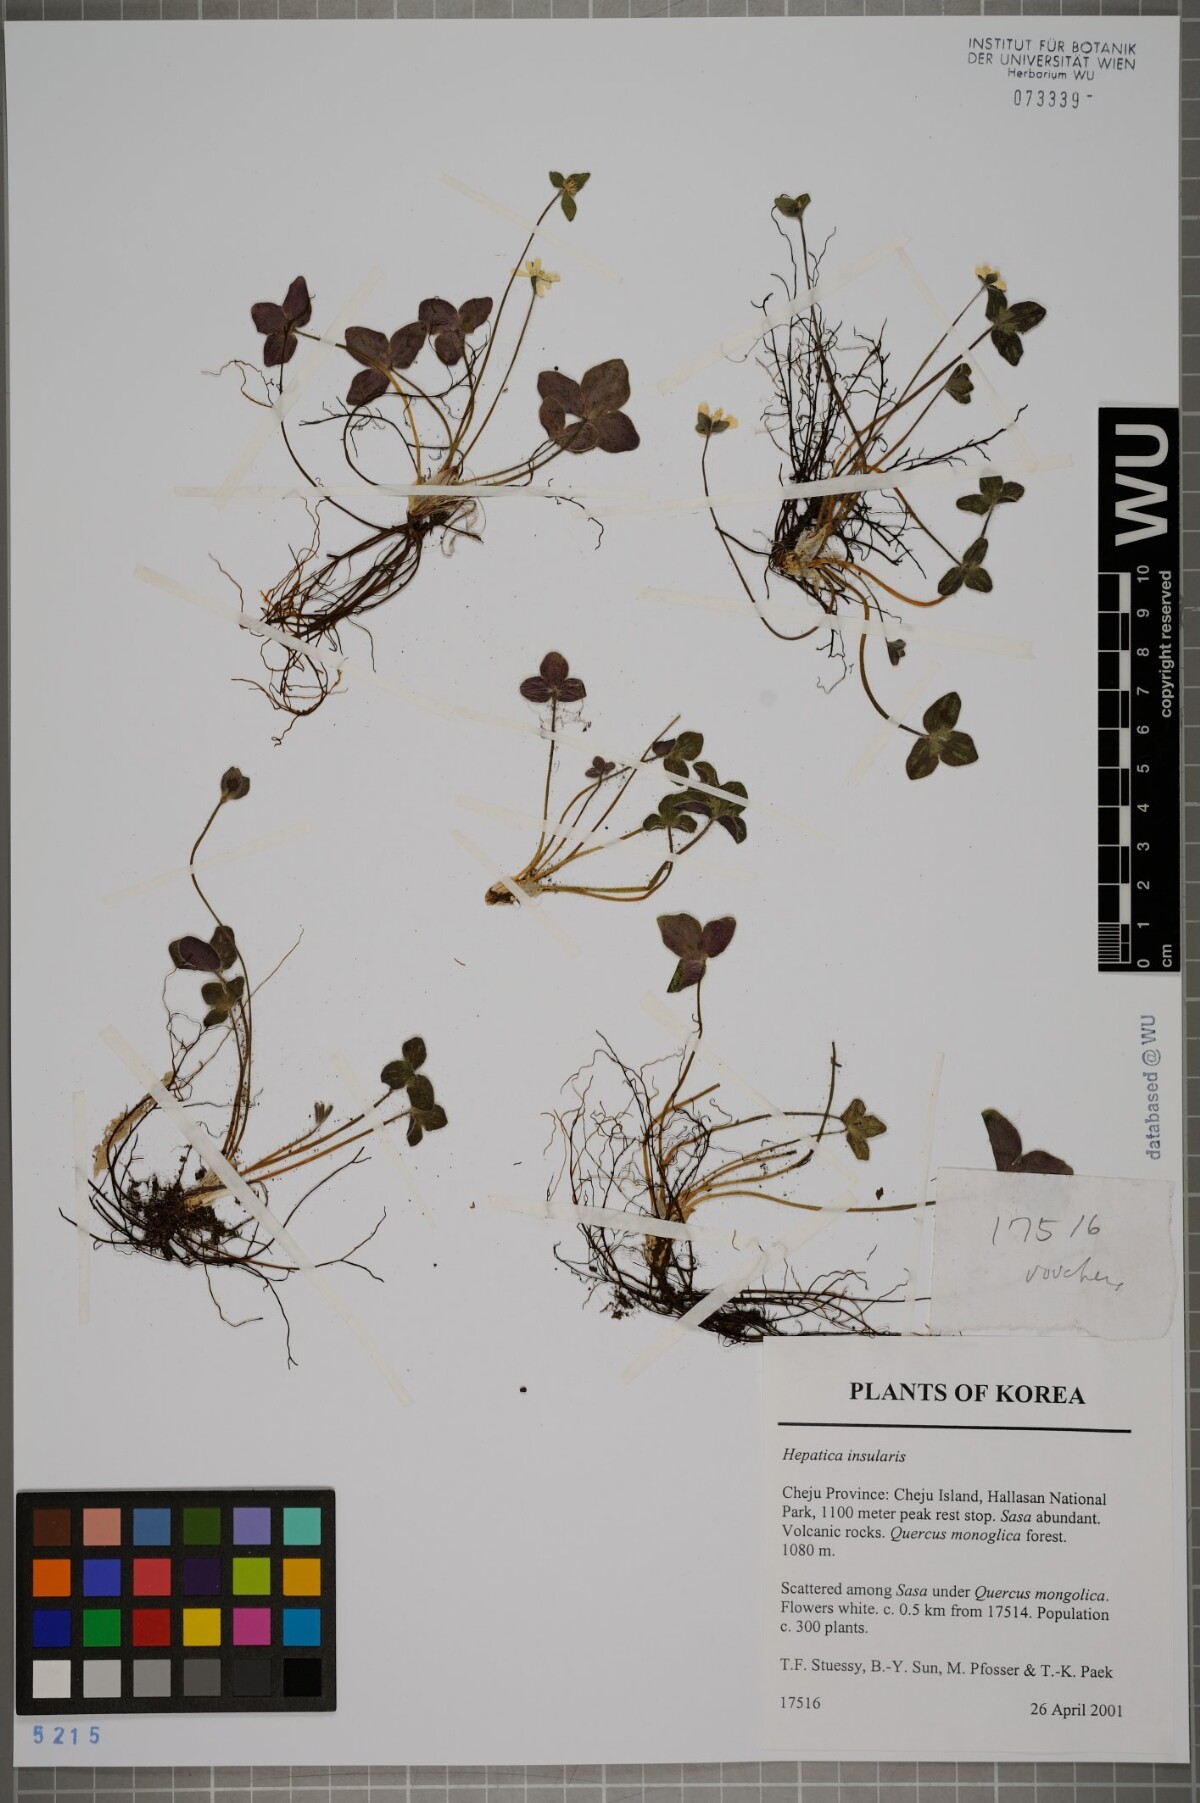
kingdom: Plantae
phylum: Tracheophyta
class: Magnoliopsida
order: Ranunculales
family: Ranunculaceae
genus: Hepatica
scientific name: Hepatica insularis
